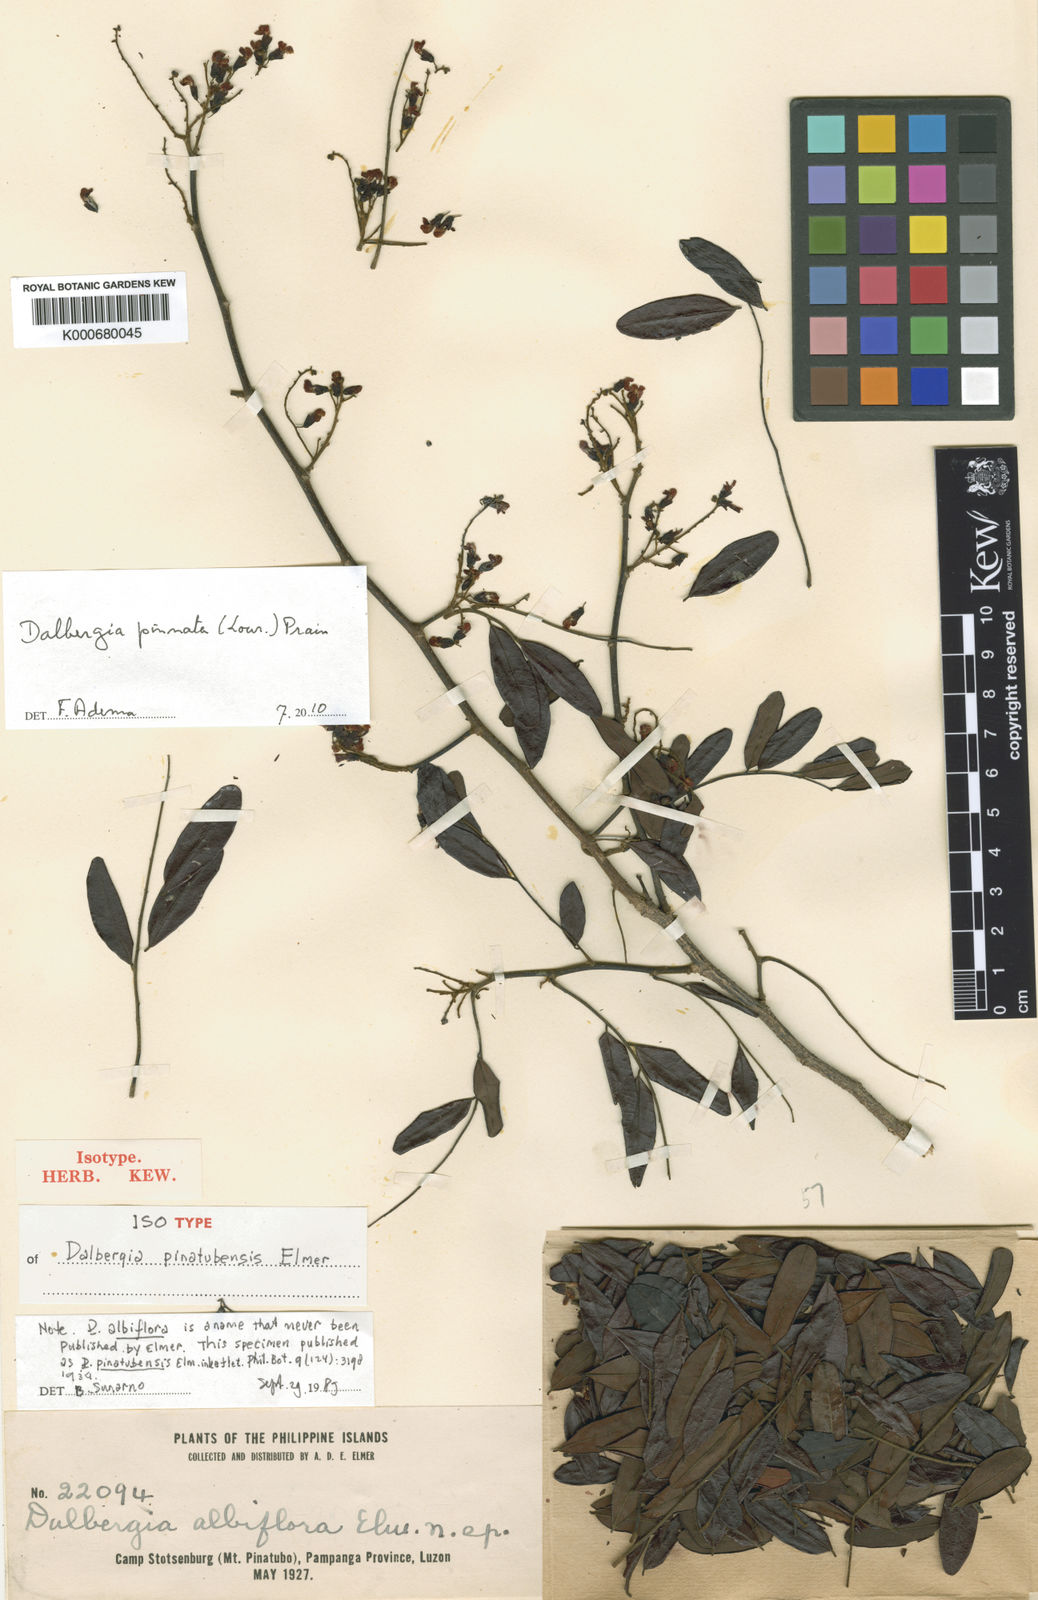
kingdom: Plantae
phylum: Tracheophyta
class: Magnoliopsida
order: Fabales
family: Fabaceae
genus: Dalbergia
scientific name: Dalbergia pinnata
